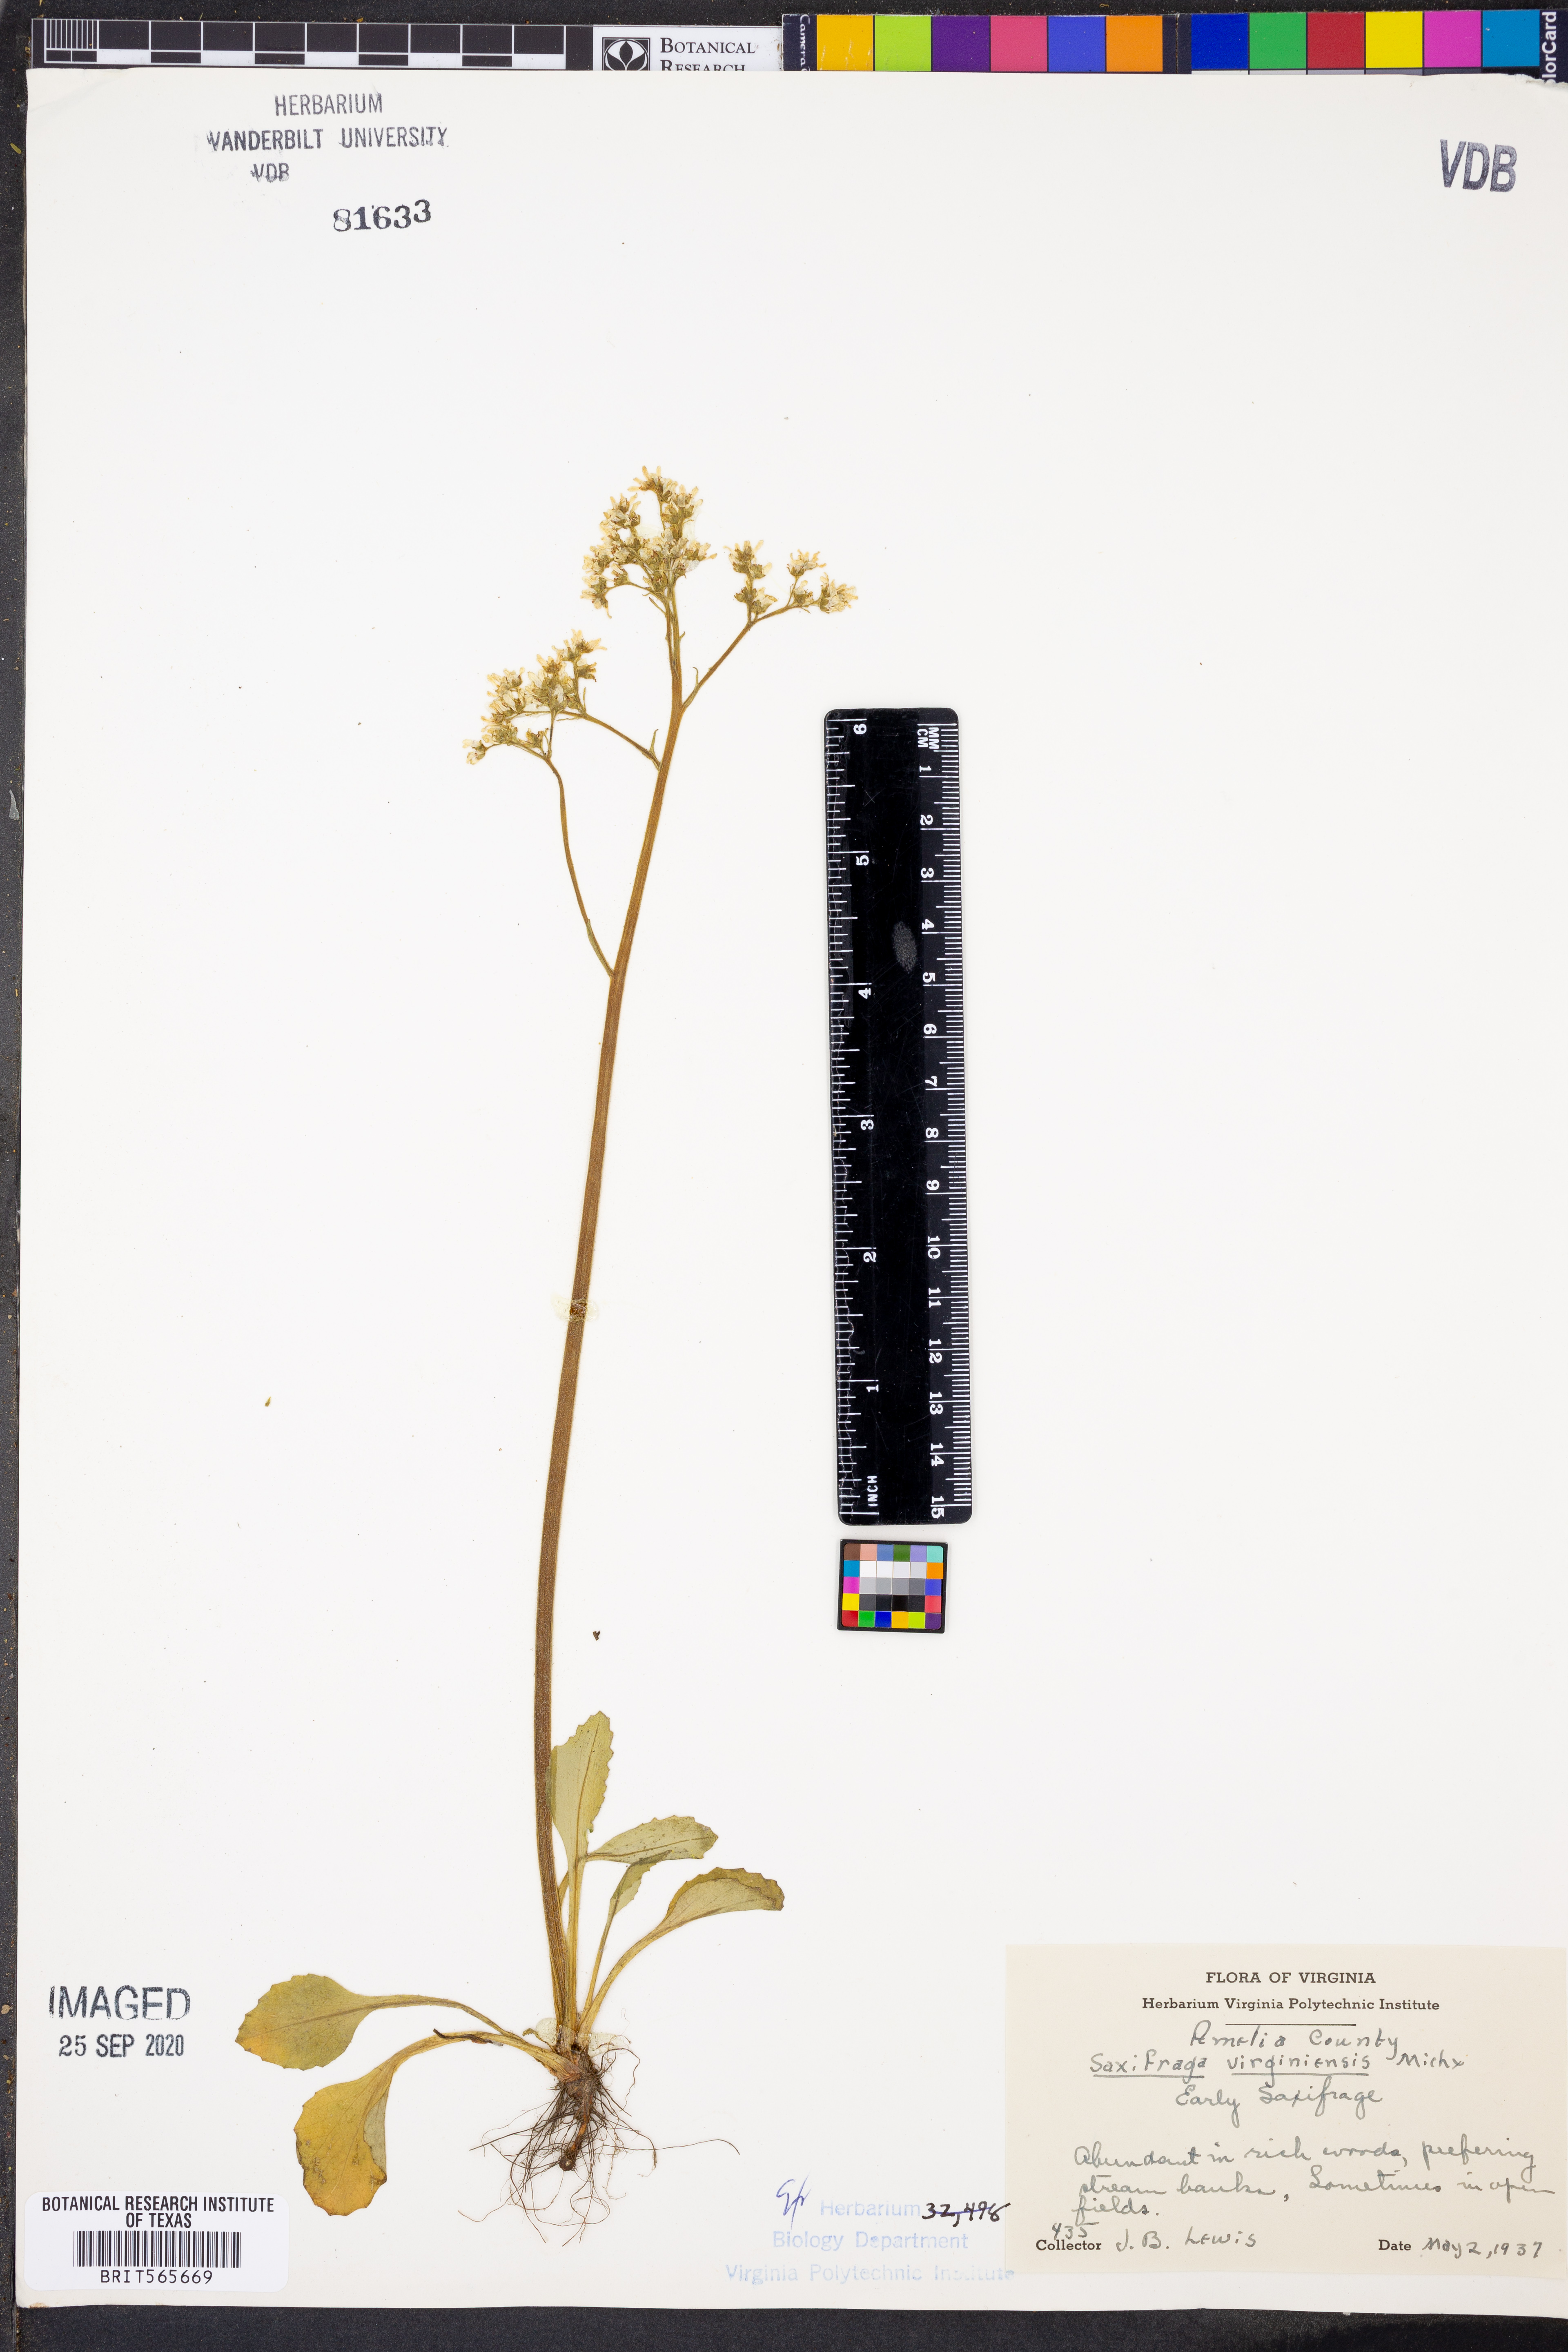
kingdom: Plantae
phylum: Tracheophyta
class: Magnoliopsida
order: Saxifragales
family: Saxifragaceae
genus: Micranthes
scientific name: Micranthes virginiensis
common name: Early saxifrage
